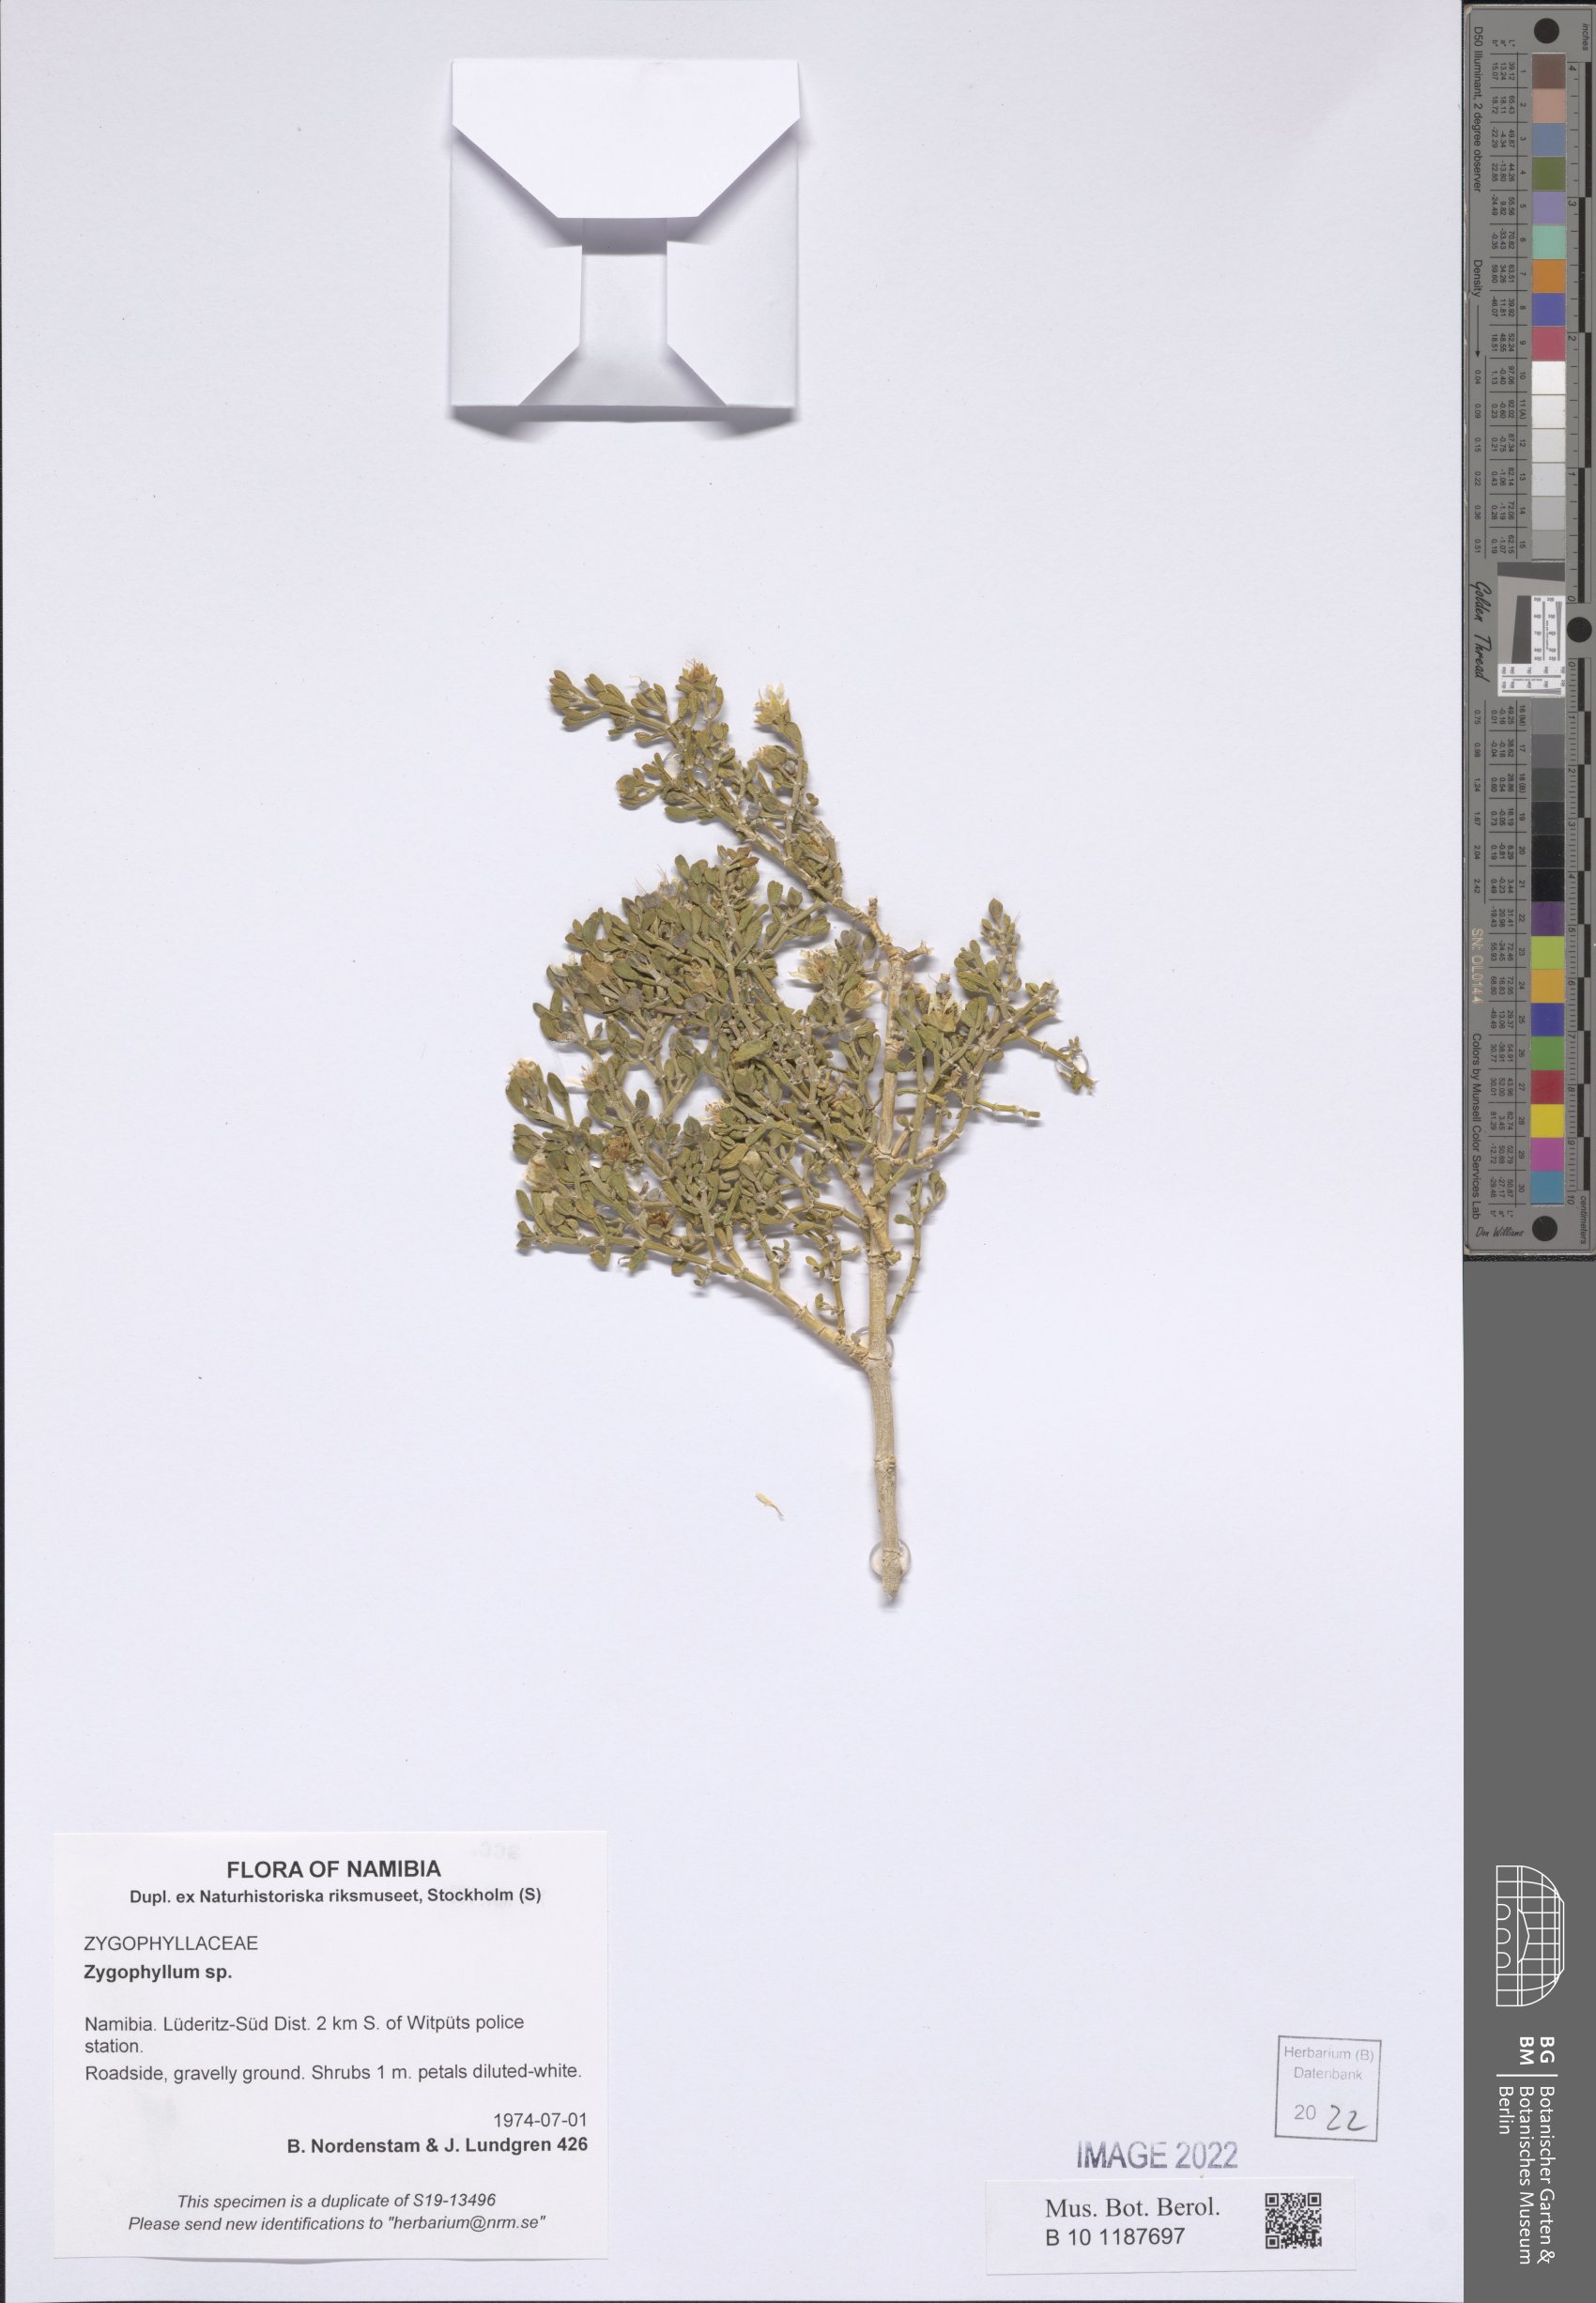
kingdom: Plantae
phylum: Tracheophyta
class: Magnoliopsida
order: Zygophyllales
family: Zygophyllaceae
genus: Zygophyllum
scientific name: Zygophyllum
